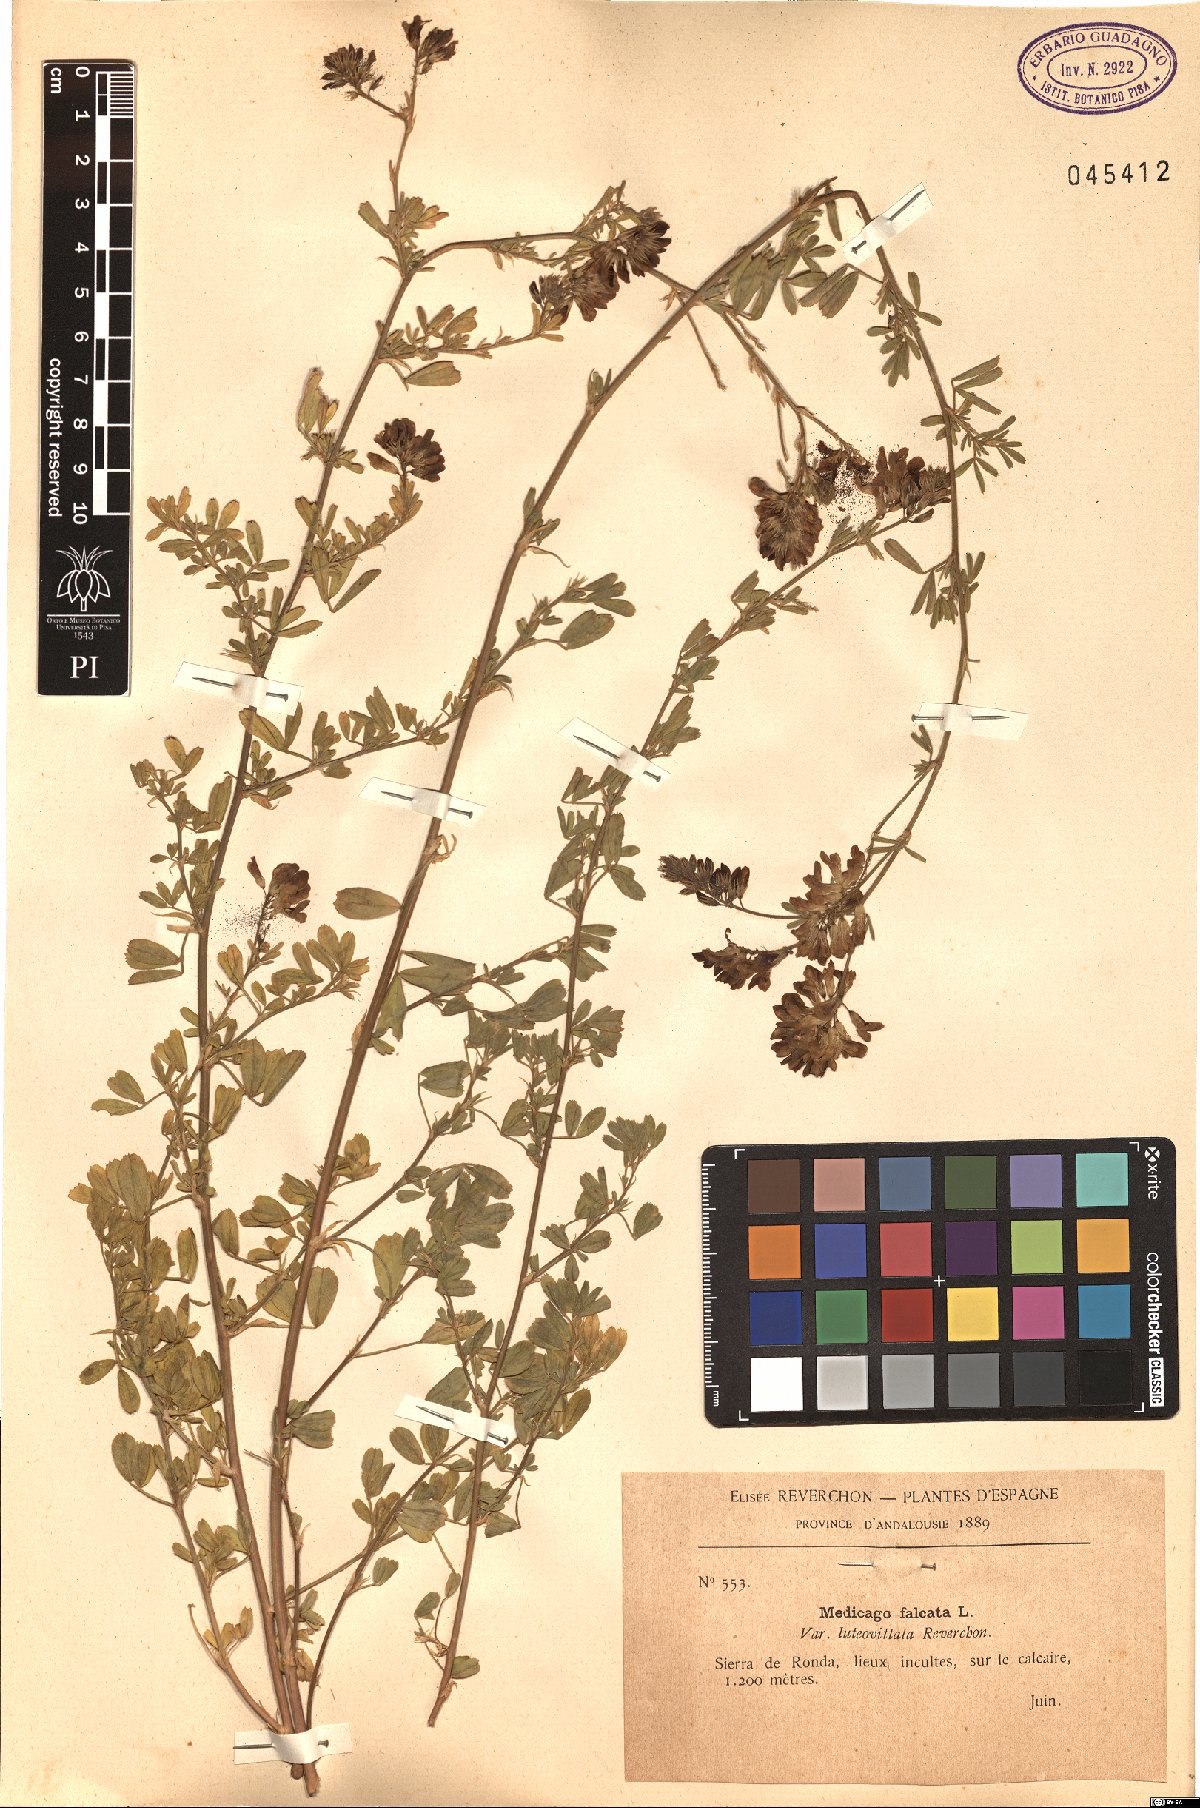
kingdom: Plantae
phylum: Tracheophyta
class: Magnoliopsida
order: Fabales
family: Fabaceae
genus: Medicago
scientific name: Medicago falcata
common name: Sickle medick
